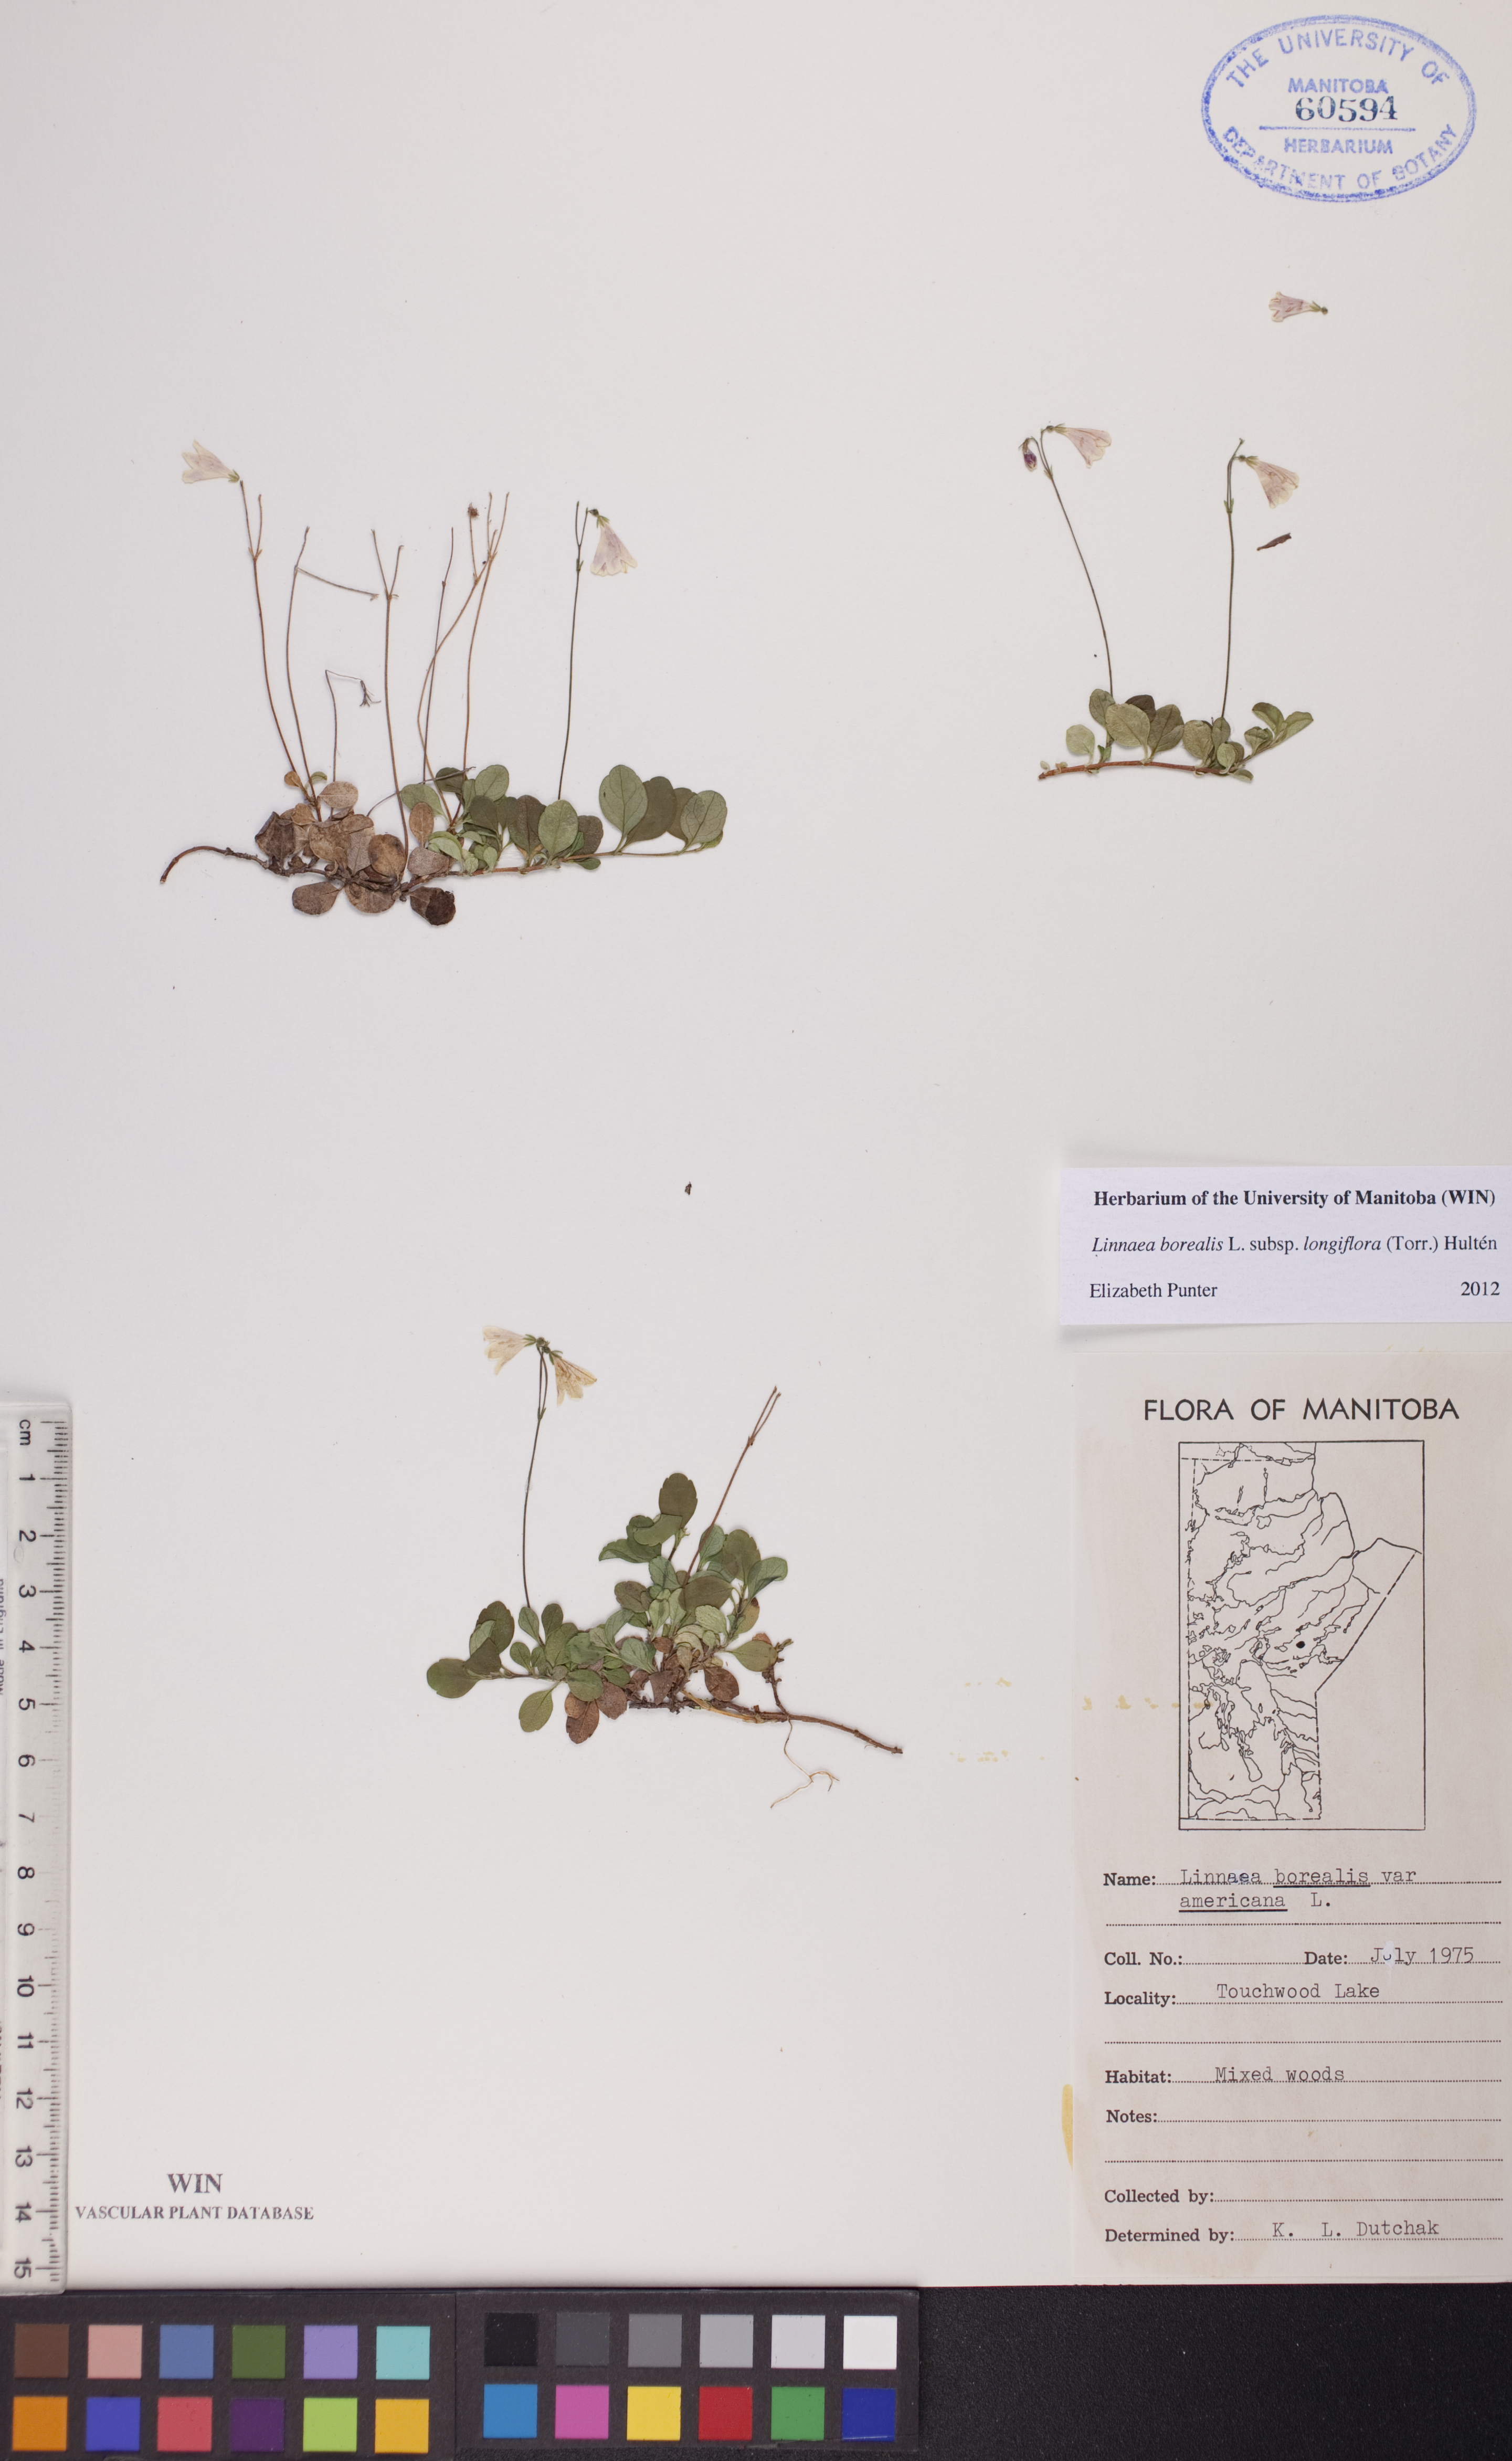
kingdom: Plantae
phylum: Tracheophyta
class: Magnoliopsida
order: Dipsacales
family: Caprifoliaceae
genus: Linnaea
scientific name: Linnaea borealis
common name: Twinflower
